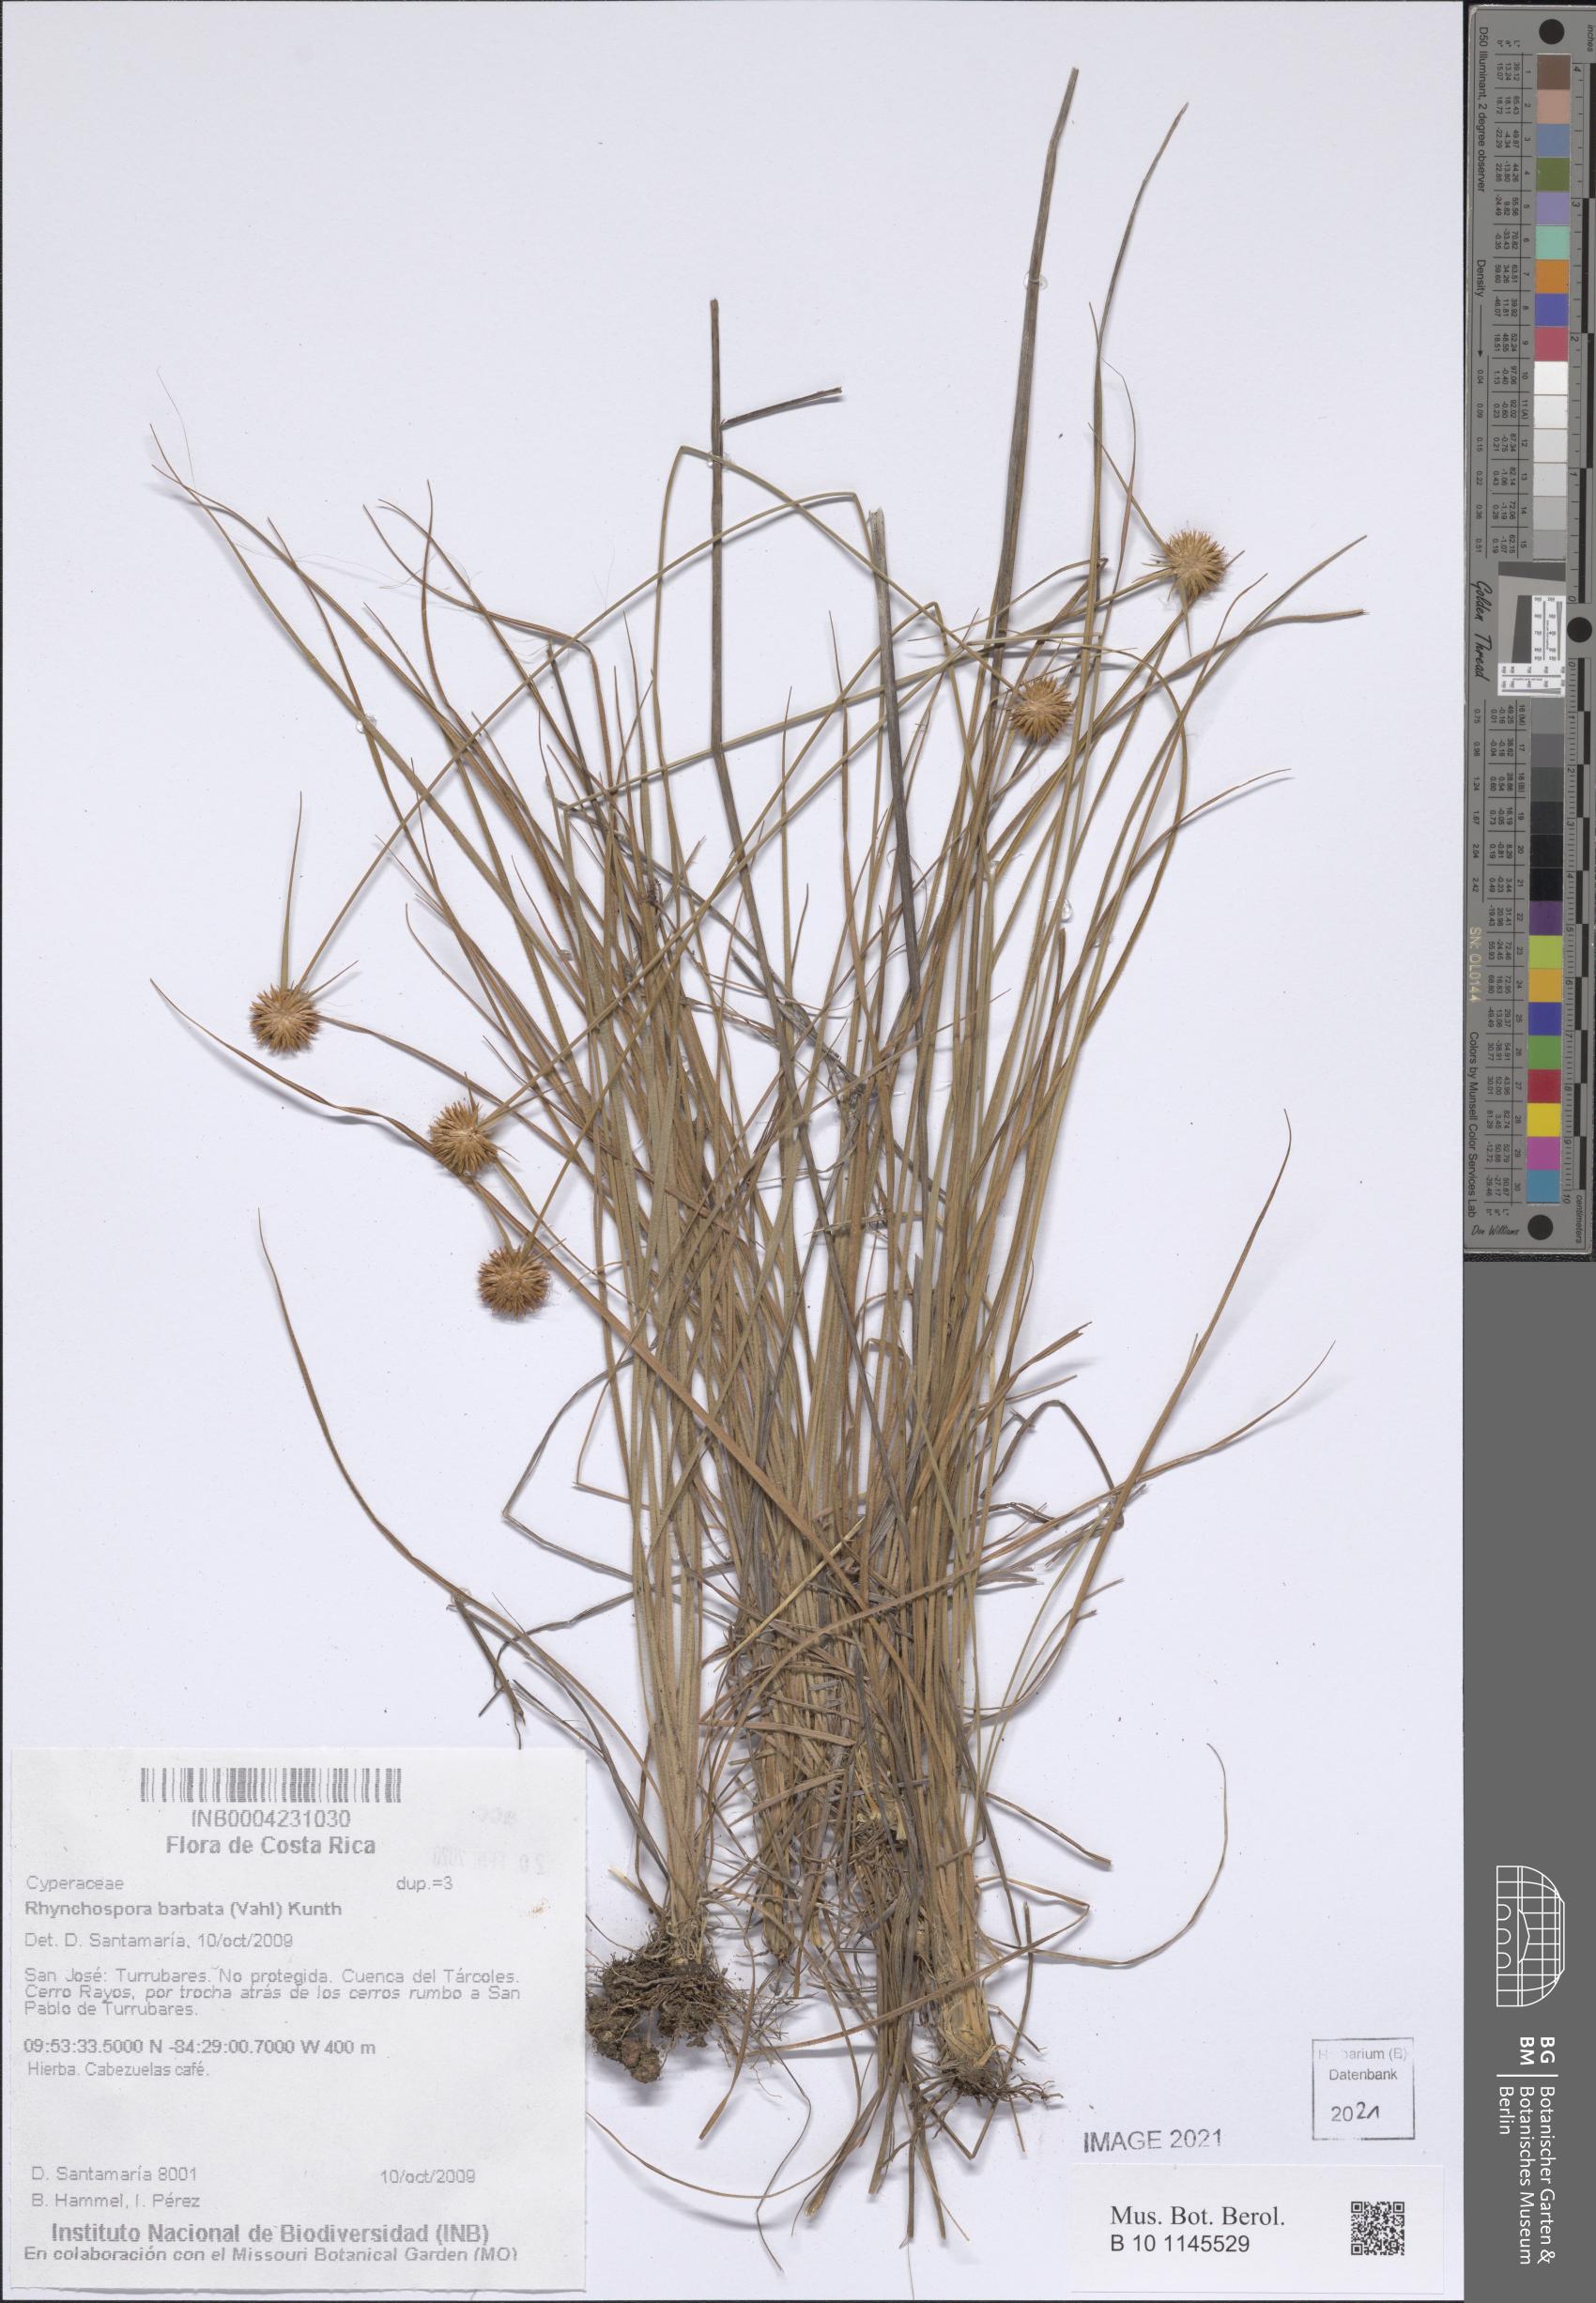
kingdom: Plantae
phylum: Tracheophyta
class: Liliopsida
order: Poales
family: Cyperaceae
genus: Rhynchospora
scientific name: Rhynchospora barbata
